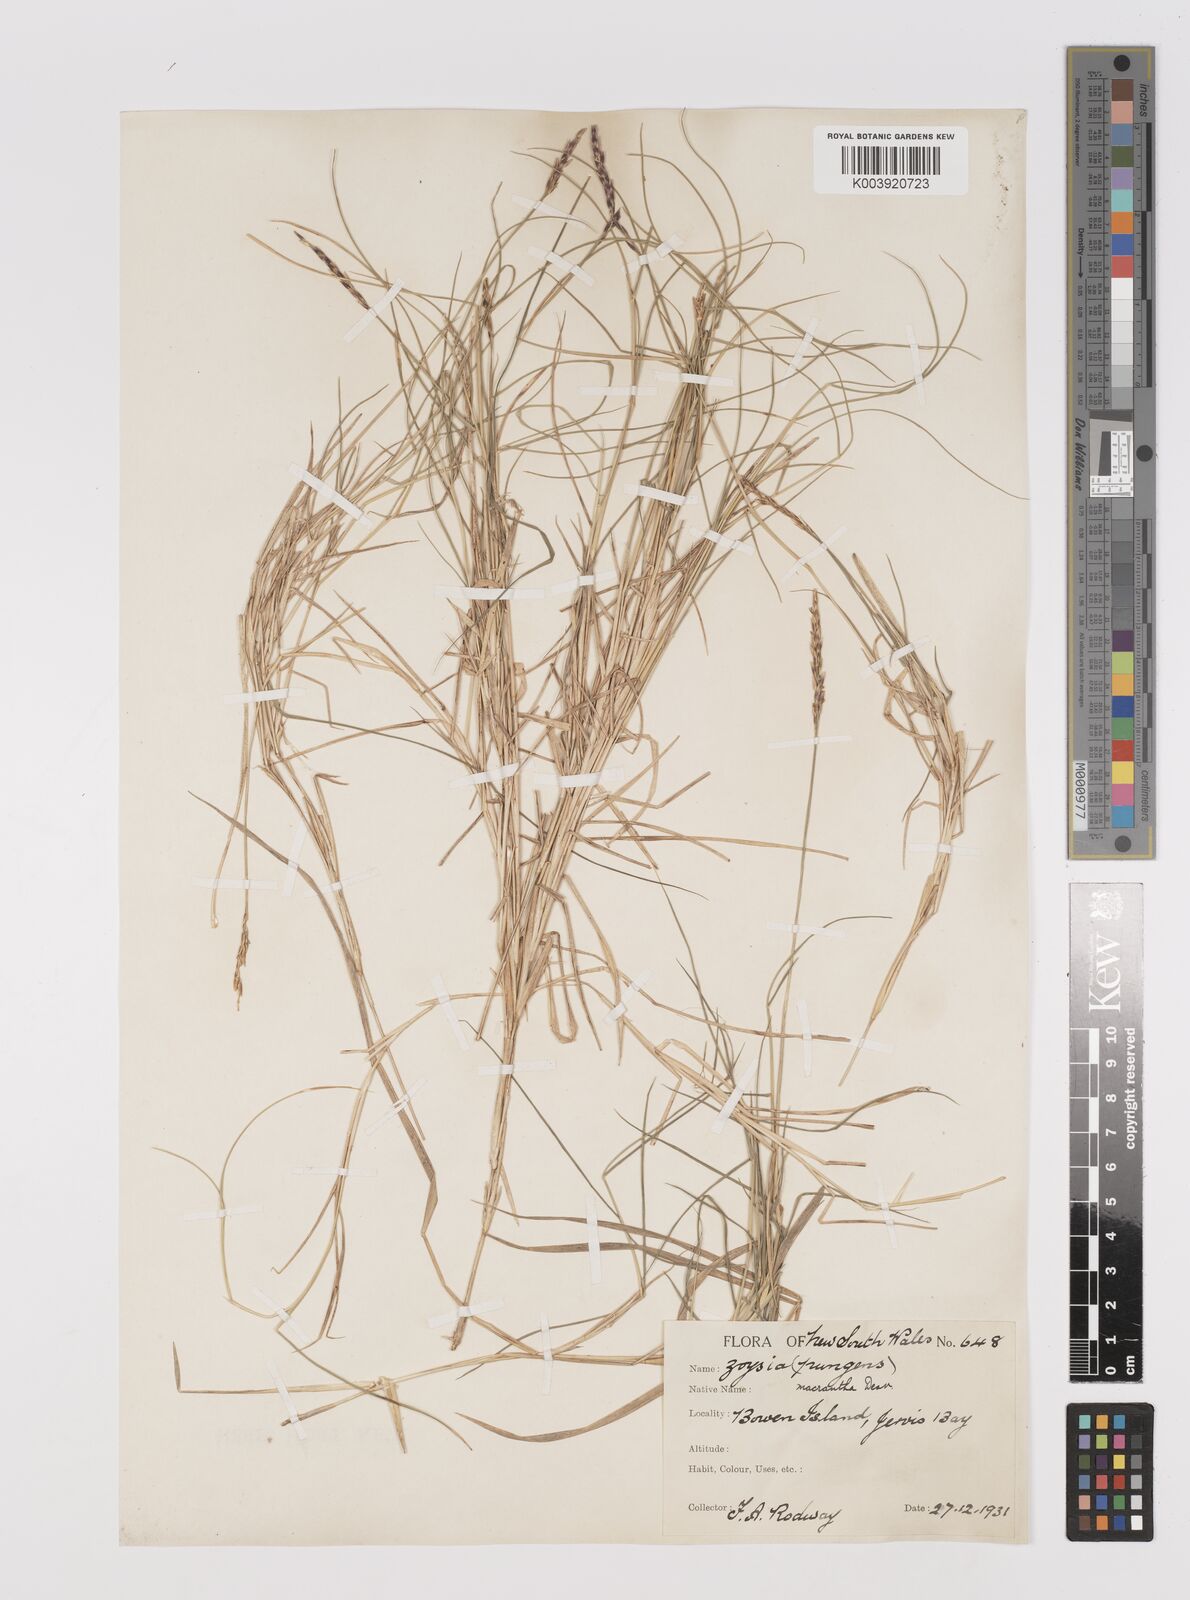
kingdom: Plantae
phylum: Tracheophyta
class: Liliopsida
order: Poales
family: Poaceae
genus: Zoysia
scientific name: Zoysia macrantha
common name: Korean lawn grass
